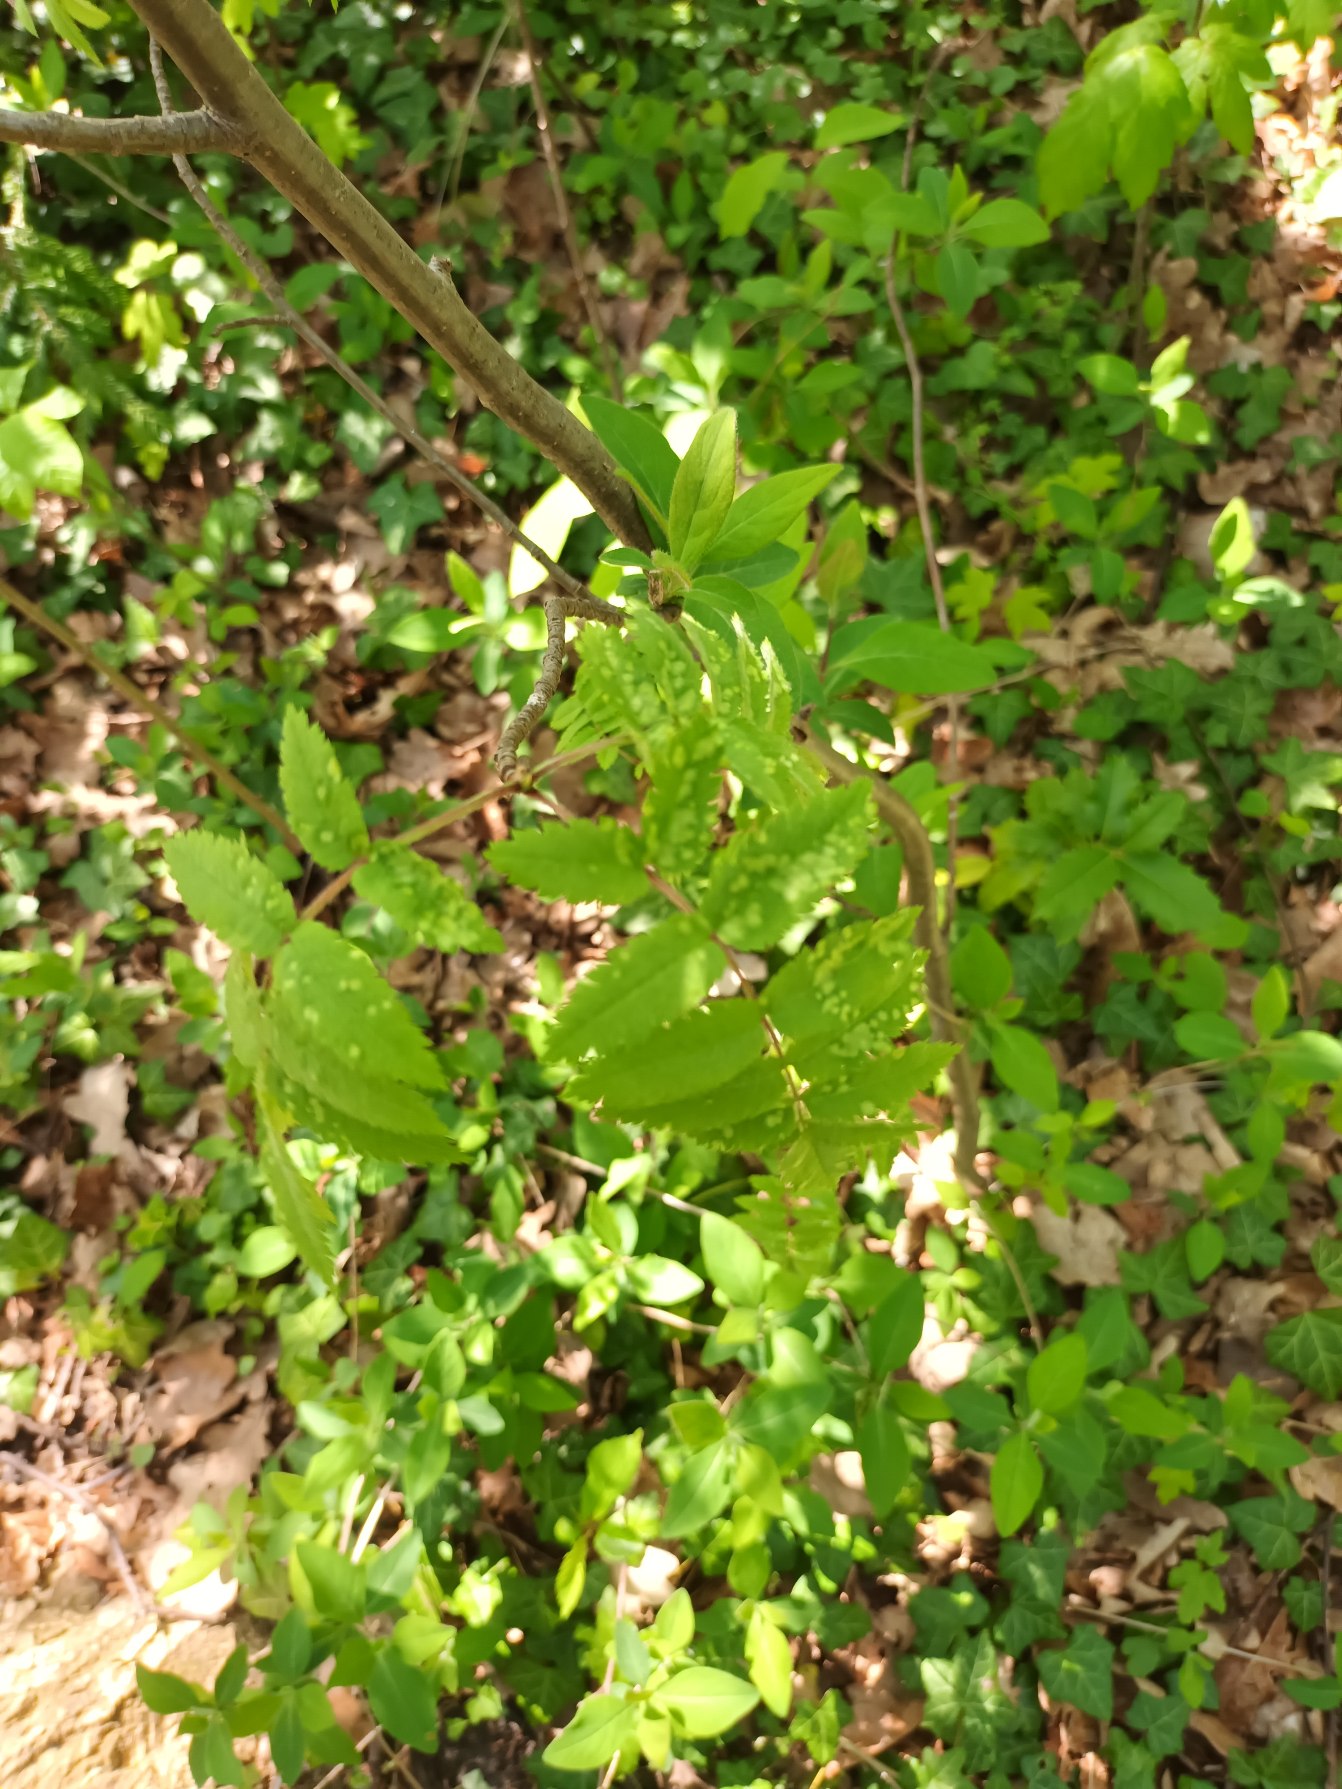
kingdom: Plantae
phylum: Tracheophyta
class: Magnoliopsida
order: Rosales
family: Rosaceae
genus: Sorbus
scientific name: Sorbus aucuparia
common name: Almindelig røn
